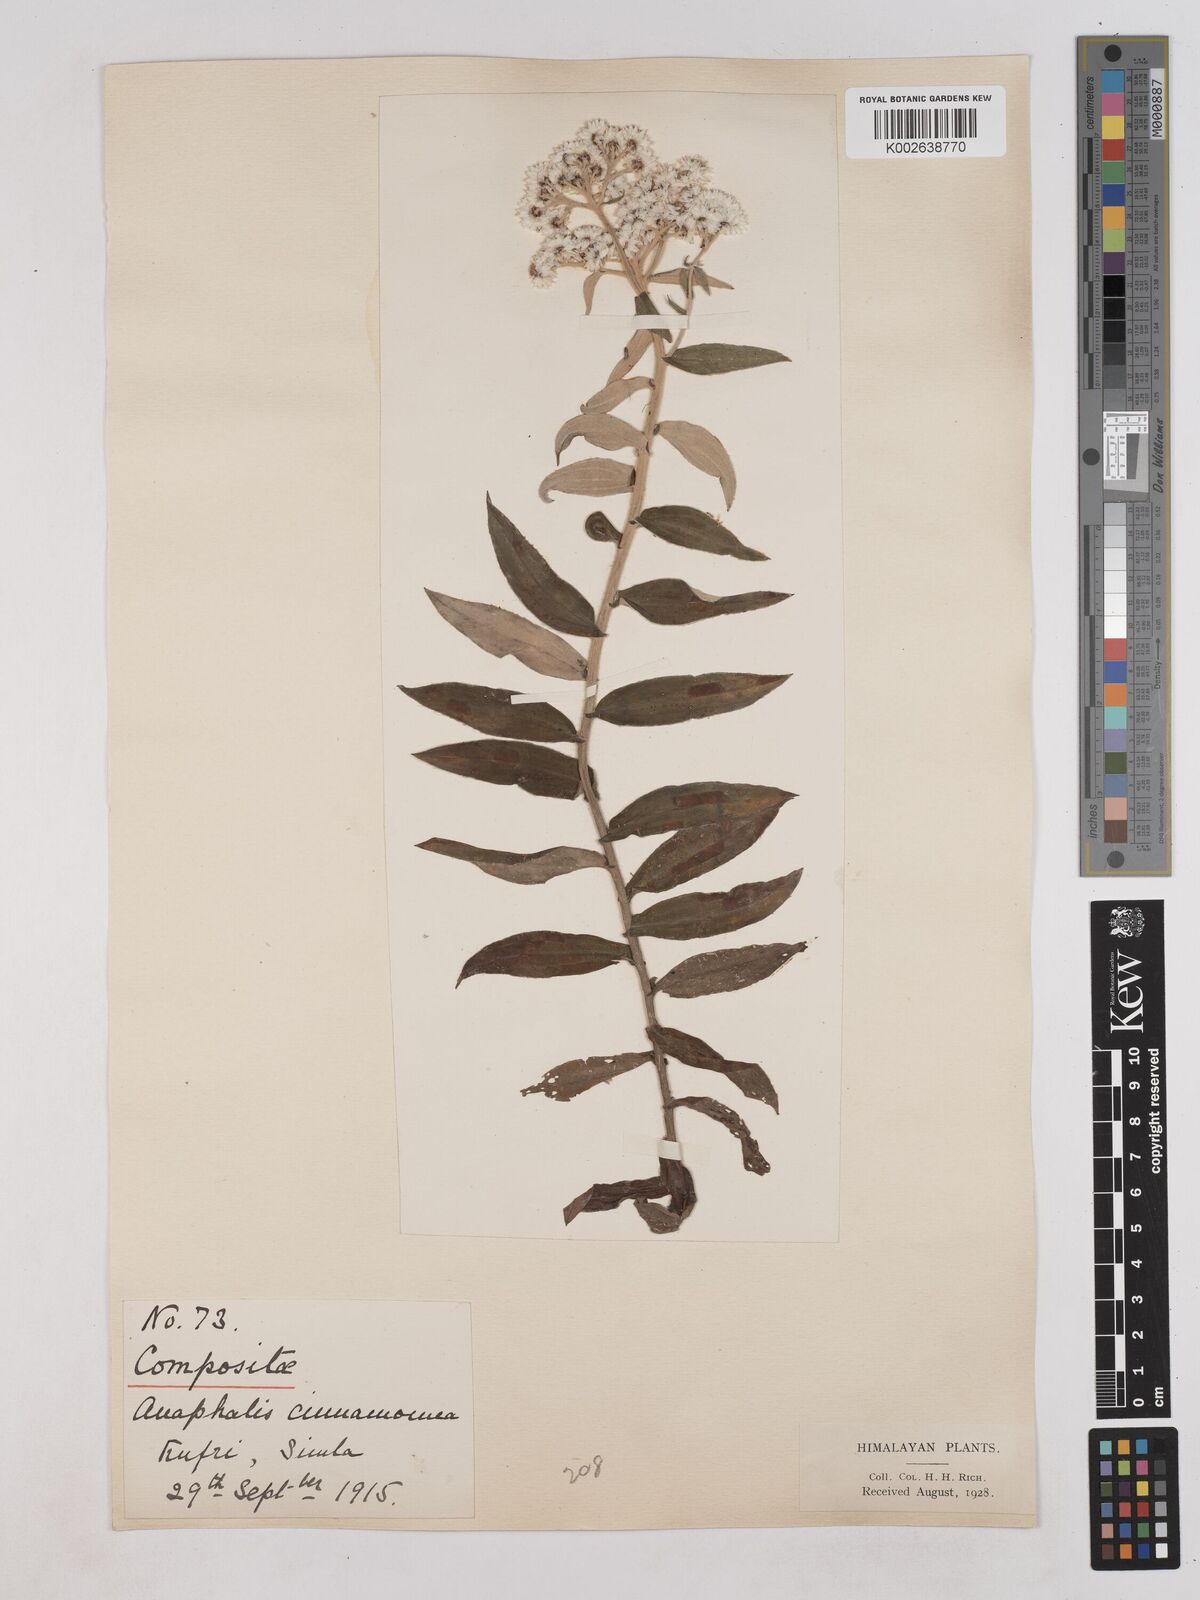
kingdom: Plantae
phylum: Tracheophyta
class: Magnoliopsida
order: Asterales
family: Asteraceae
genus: Anaphalis
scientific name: Anaphalis marcescens
